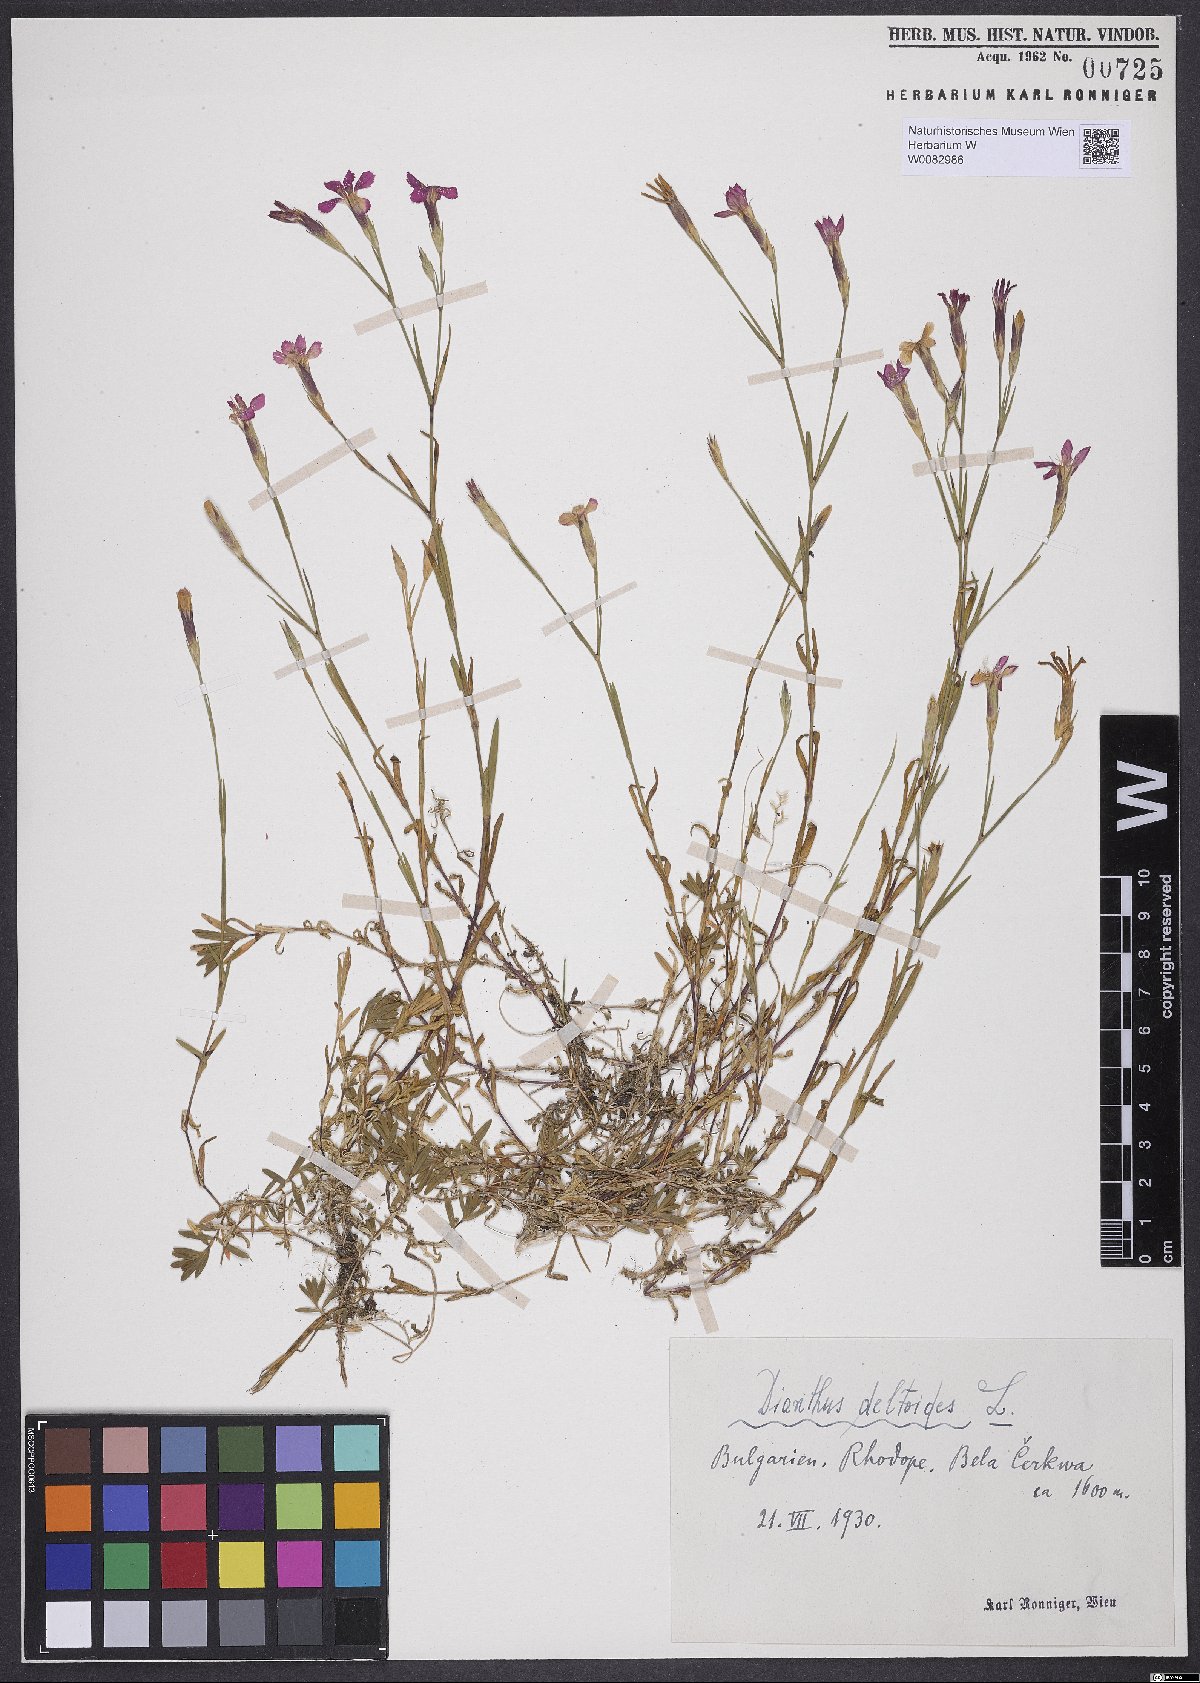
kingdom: Plantae
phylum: Tracheophyta
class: Magnoliopsida
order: Caryophyllales
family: Caryophyllaceae
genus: Dianthus
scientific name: Dianthus deltoides
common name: Maiden pink
